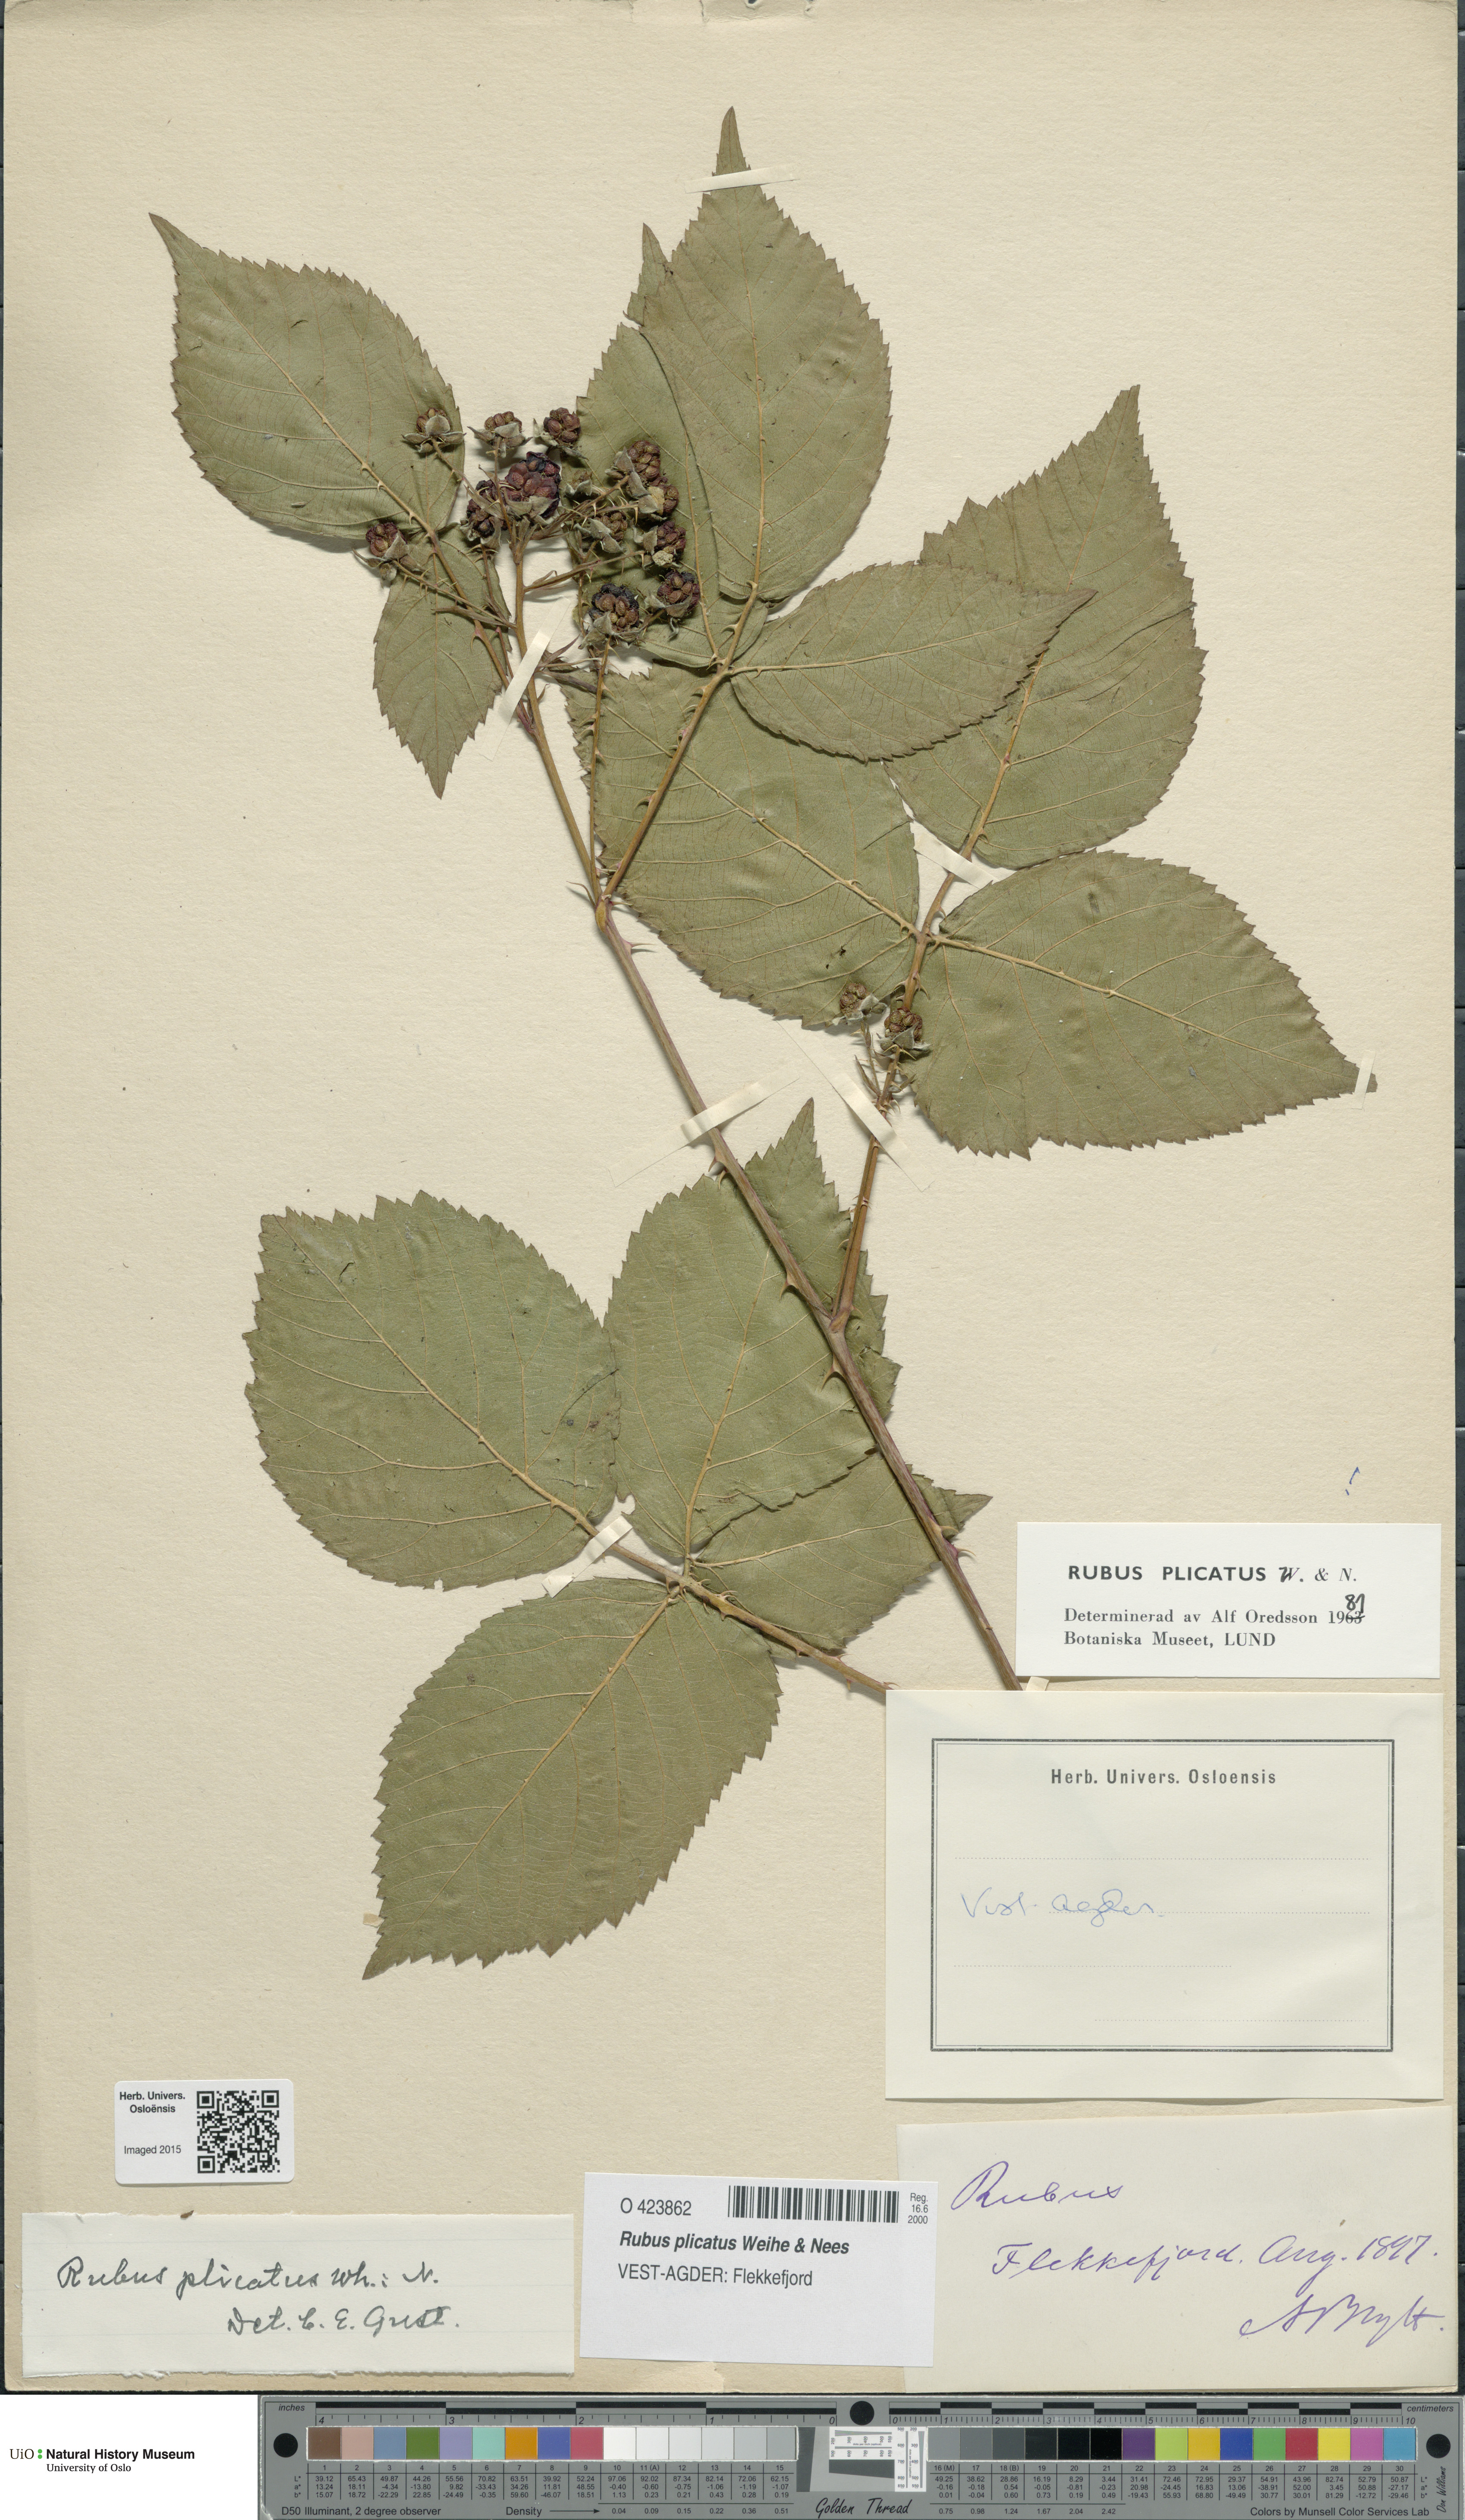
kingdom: Plantae
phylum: Tracheophyta
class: Magnoliopsida
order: Rosales
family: Rosaceae
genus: Rubus
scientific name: Rubus fruticosus
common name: Blackberry, bramble
